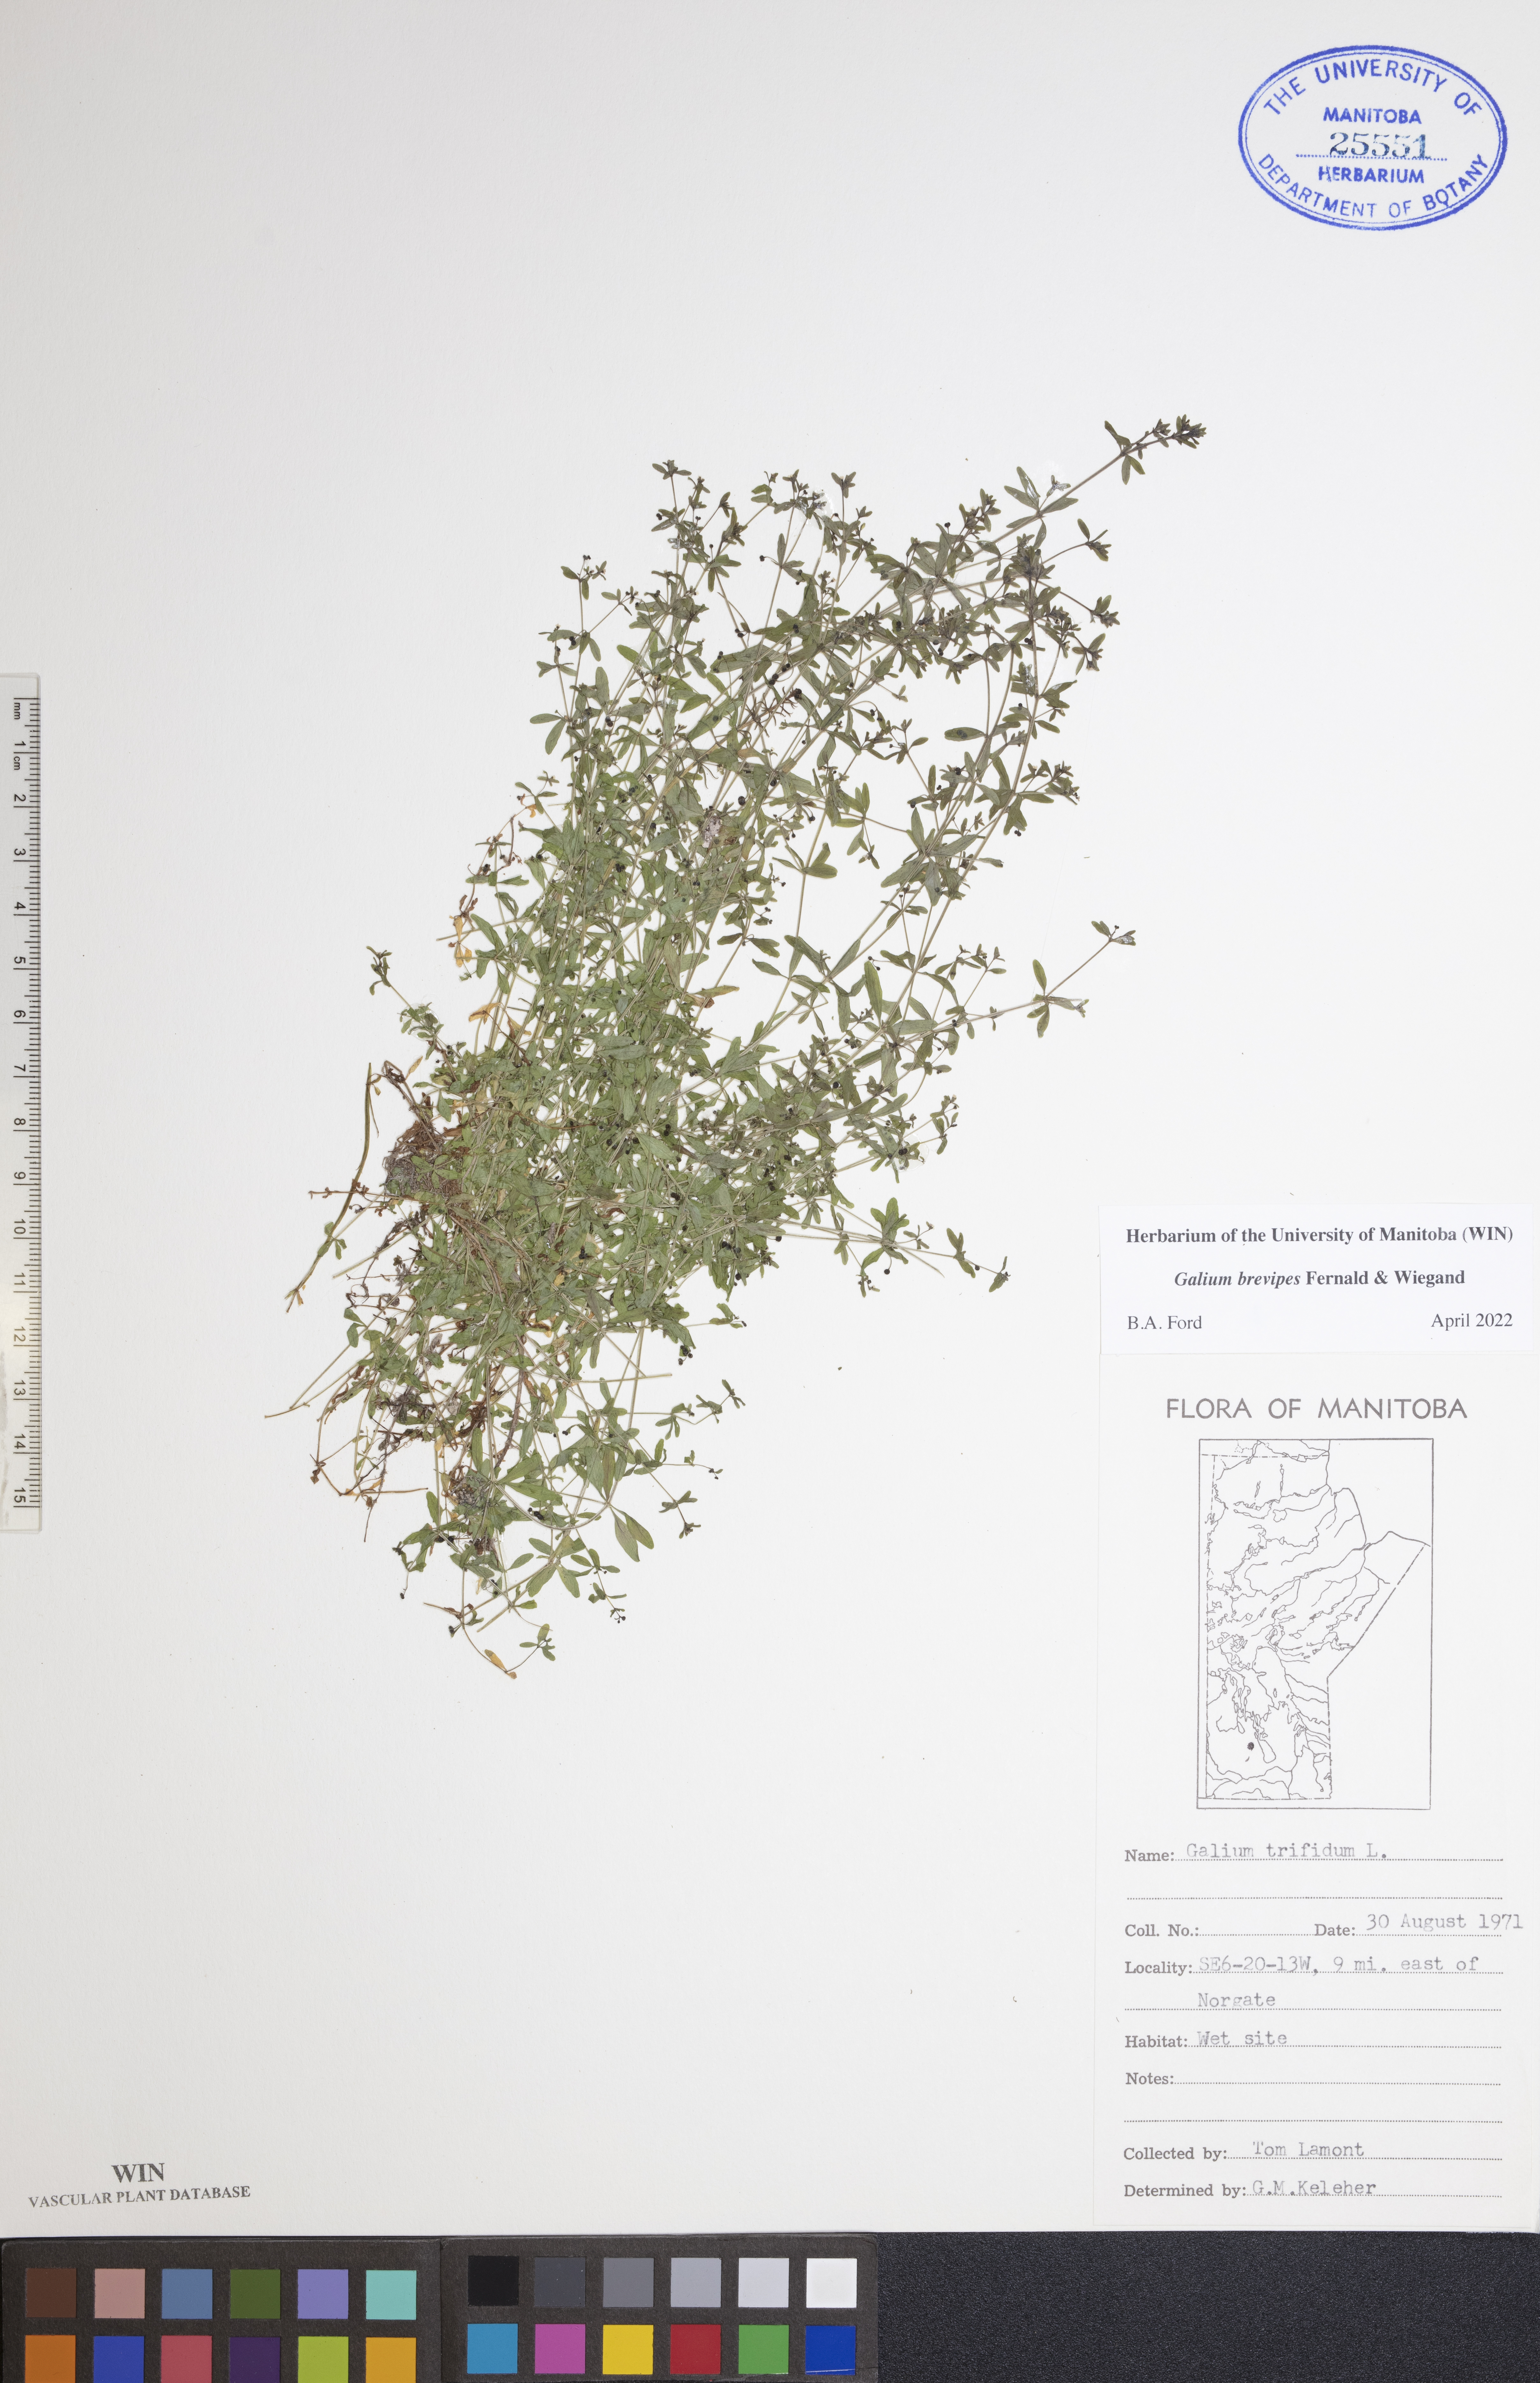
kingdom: Plantae
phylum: Tracheophyta
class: Magnoliopsida
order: Gentianales
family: Rubiaceae
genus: Galium
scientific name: Galium domingense
